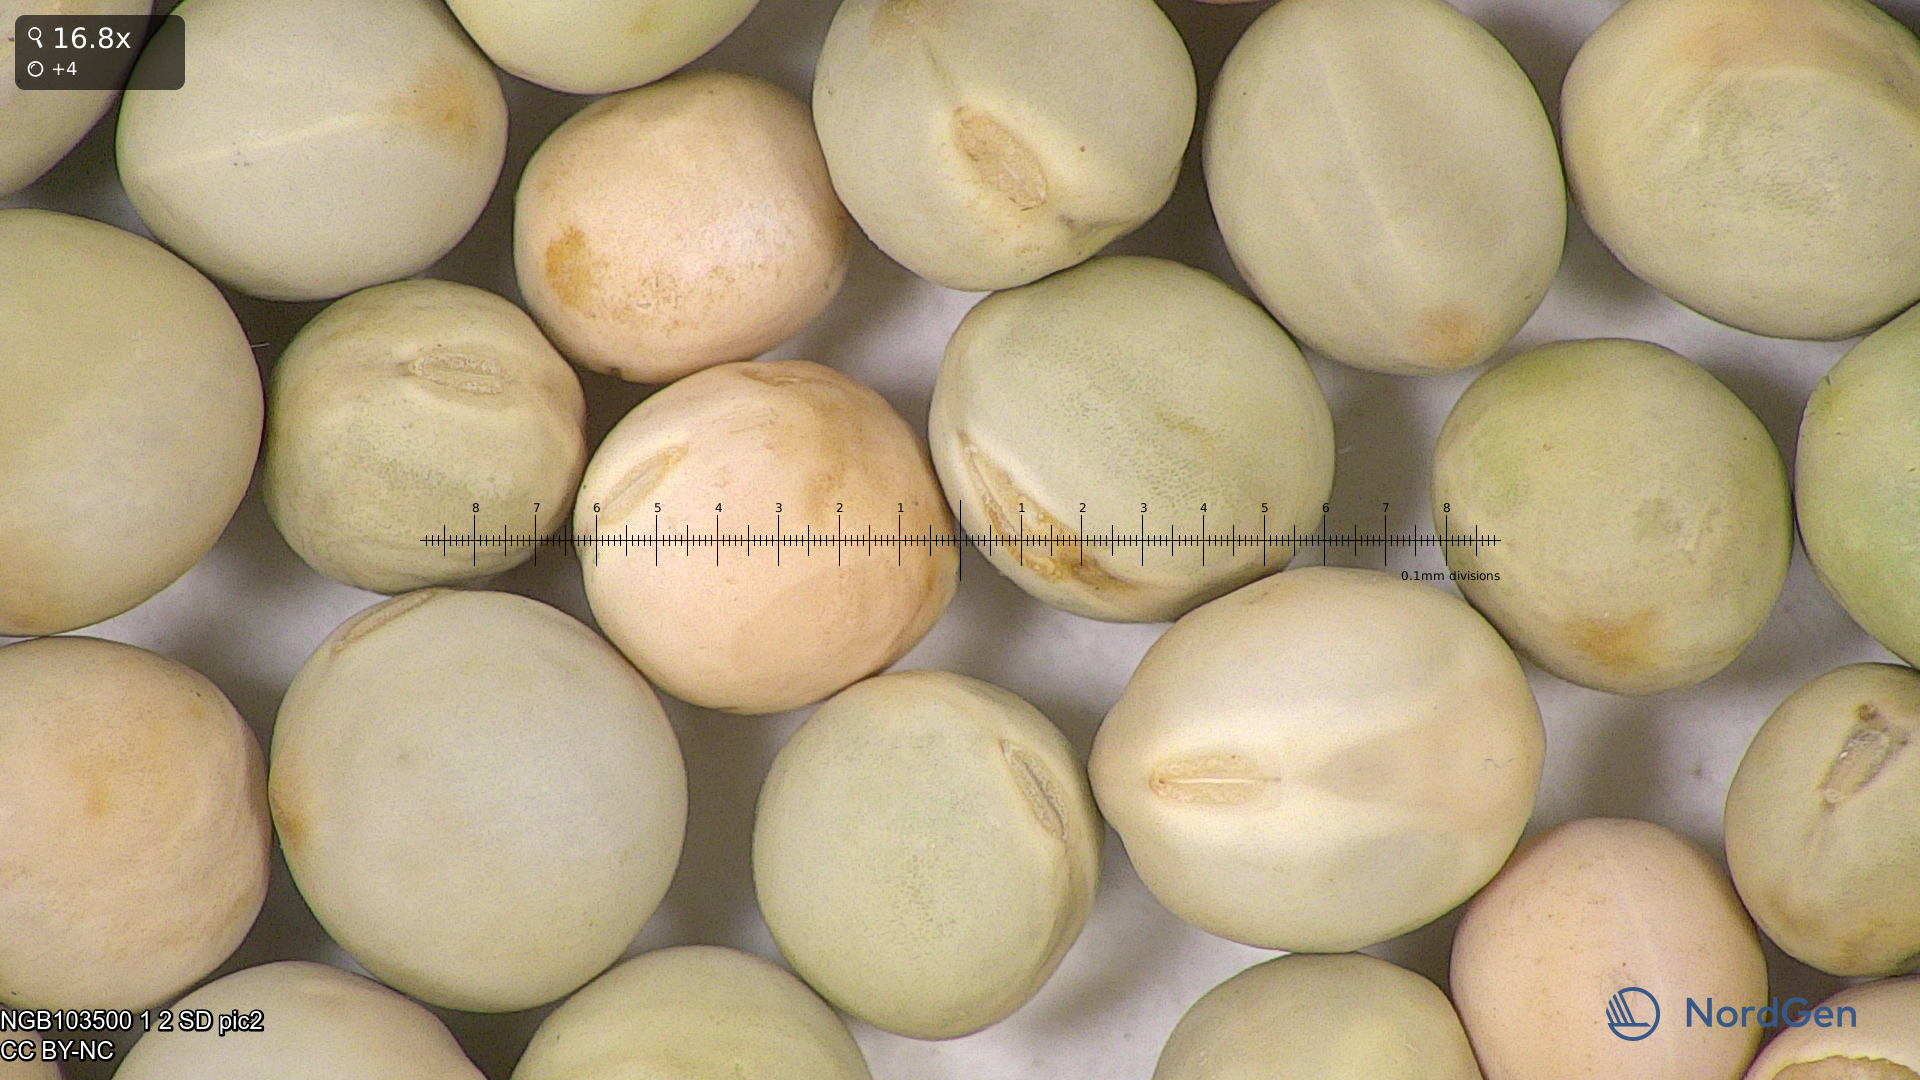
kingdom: Plantae
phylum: Tracheophyta
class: Magnoliopsida
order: Fabales
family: Fabaceae
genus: Lathyrus
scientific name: Lathyrus oleraceus
